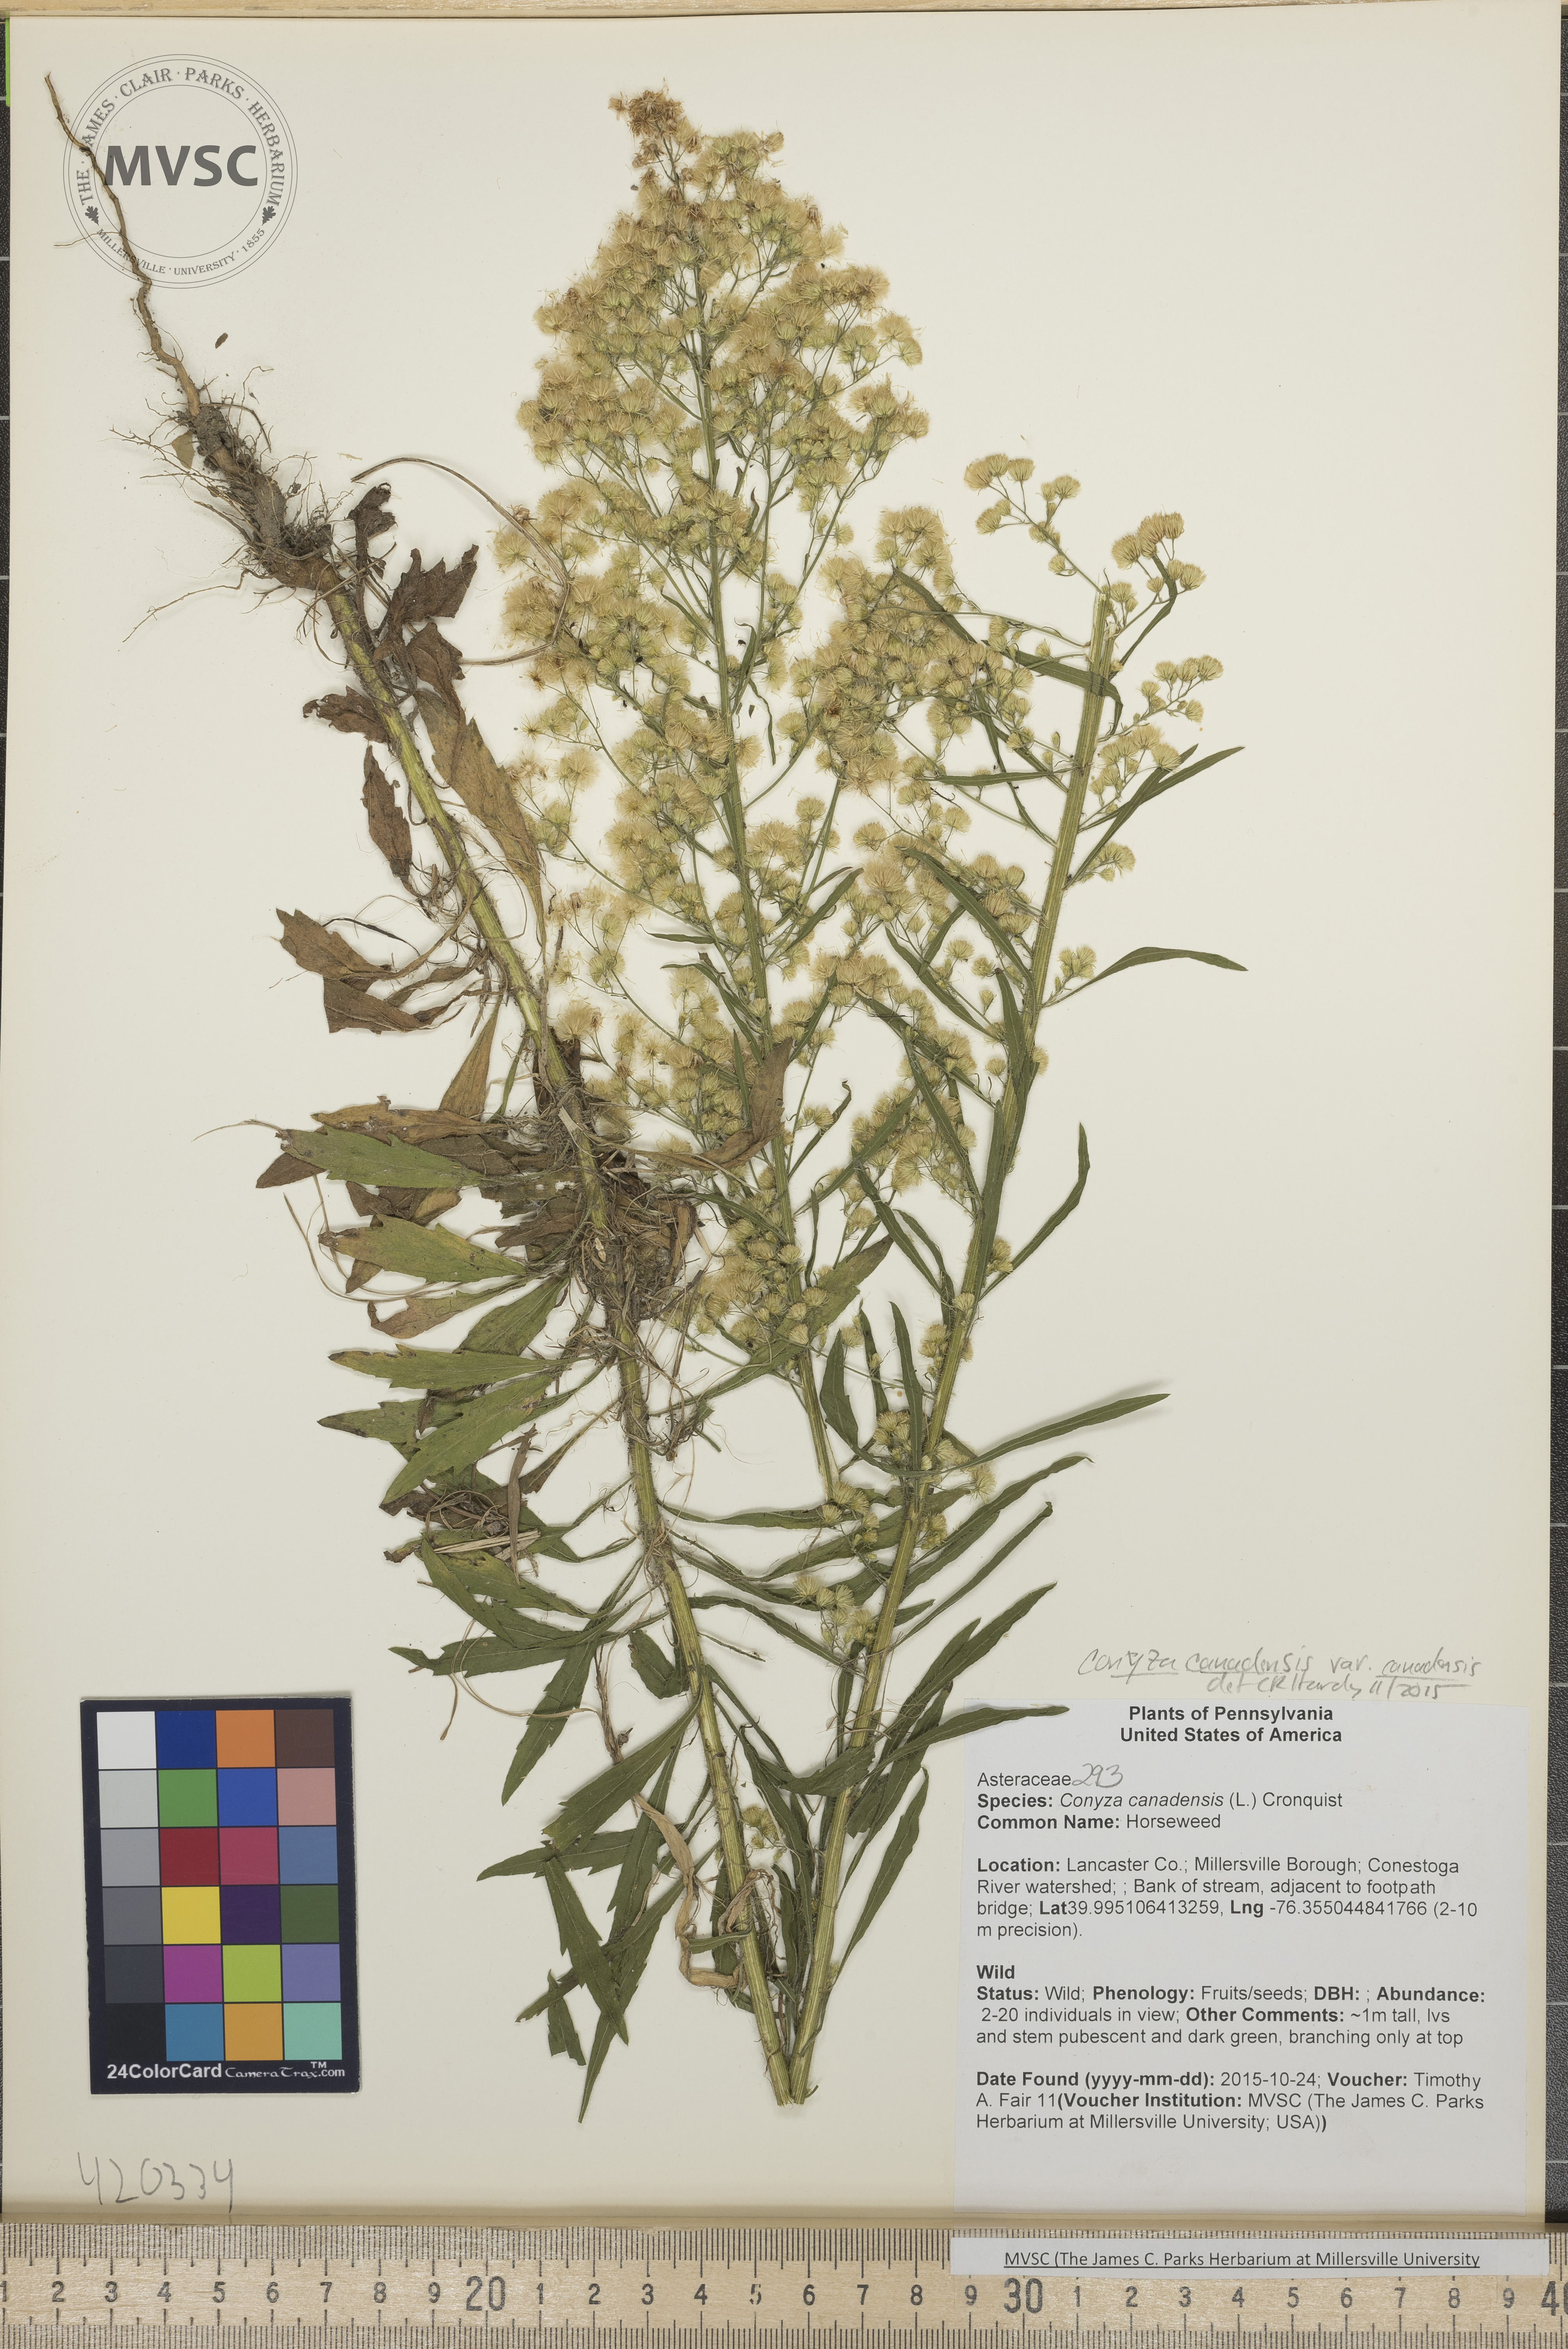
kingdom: Plantae
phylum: Tracheophyta
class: Magnoliopsida
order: Asterales
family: Asteraceae
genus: Erigeron
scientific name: Erigeron canadensis
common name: Horseweed
